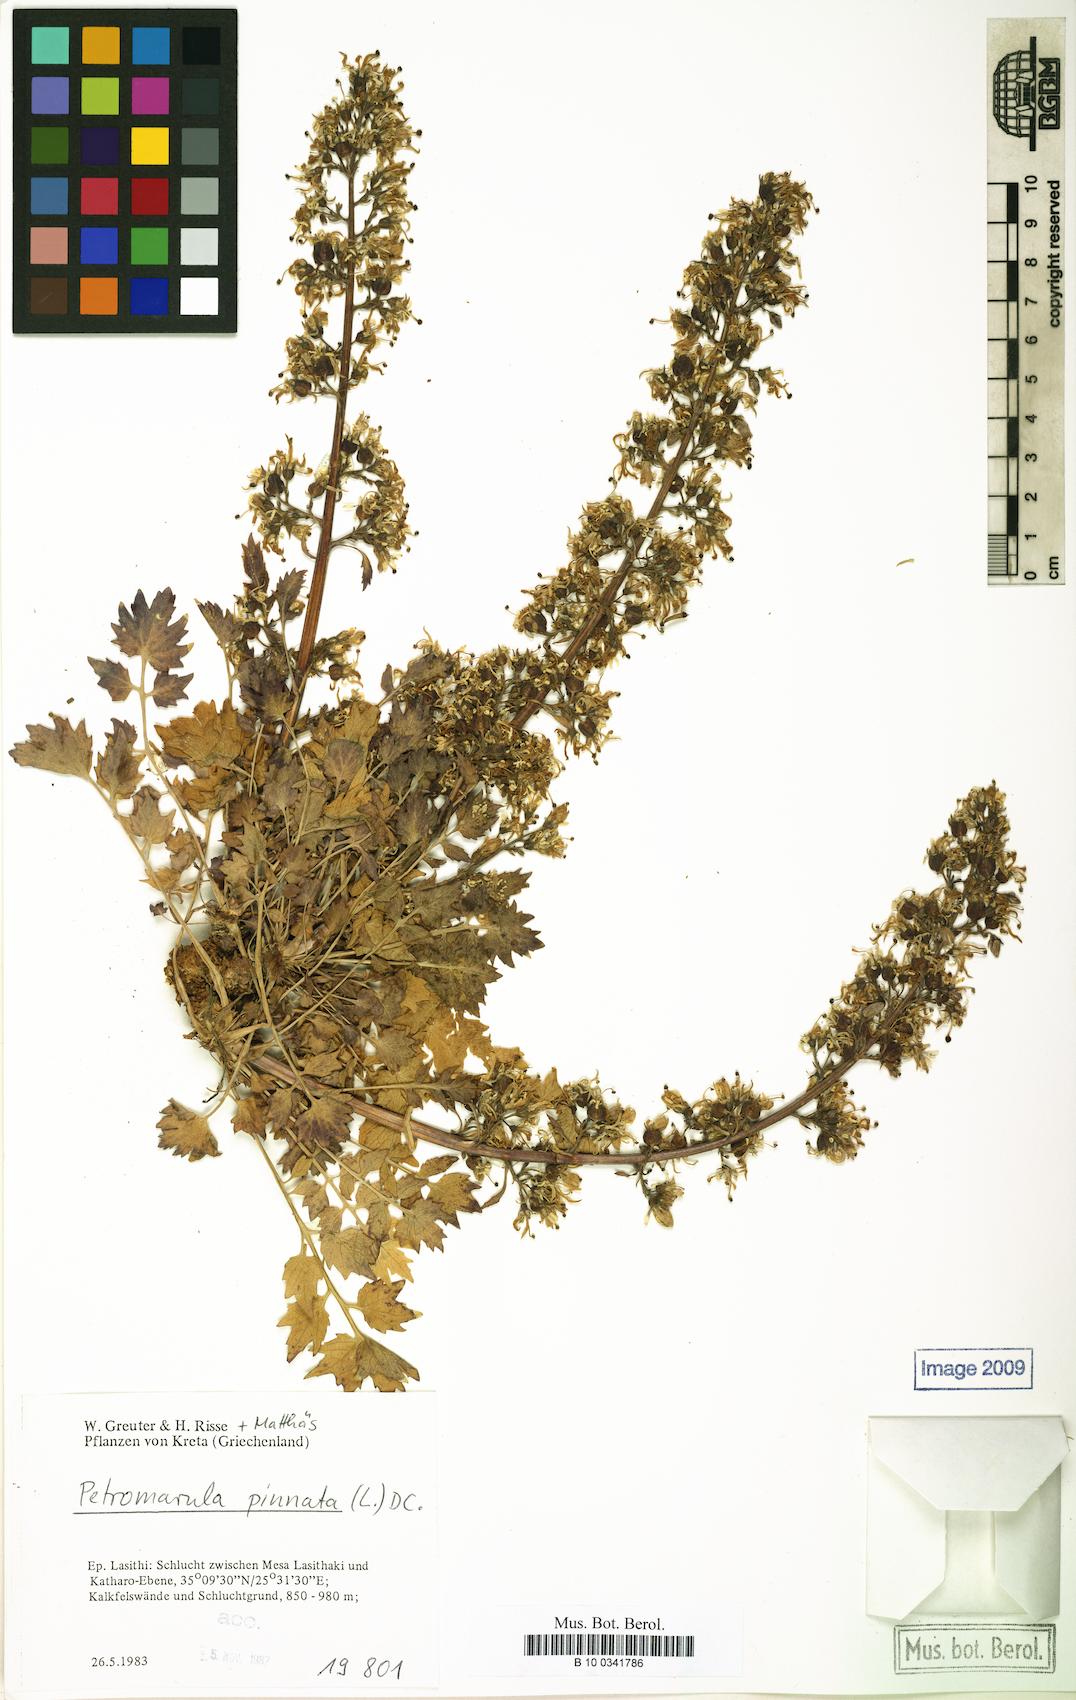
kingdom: Plantae
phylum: Tracheophyta
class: Magnoliopsida
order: Asterales
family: Campanulaceae
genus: Petromarula
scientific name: Petromarula pinnata
